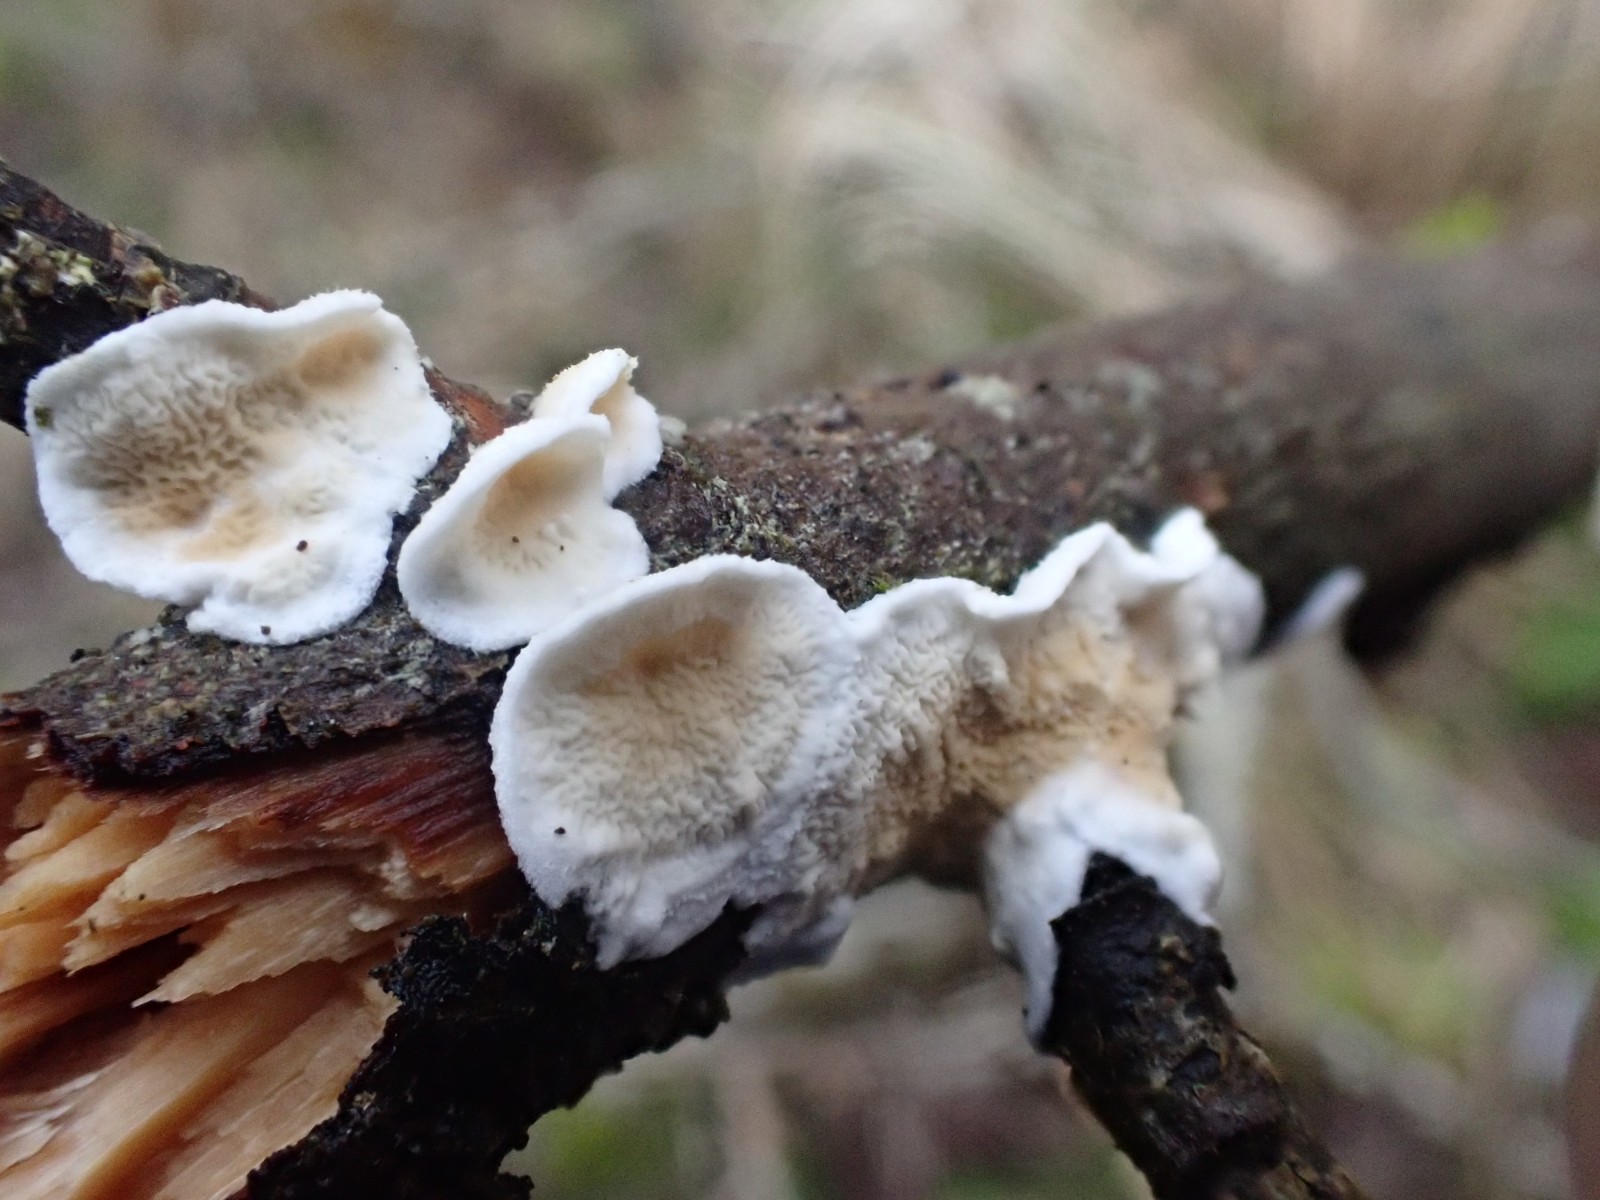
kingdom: Fungi
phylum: Basidiomycota
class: Agaricomycetes
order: Polyporales
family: Irpicaceae
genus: Byssomerulius
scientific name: Byssomerulius corium
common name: læder-åresvamp
